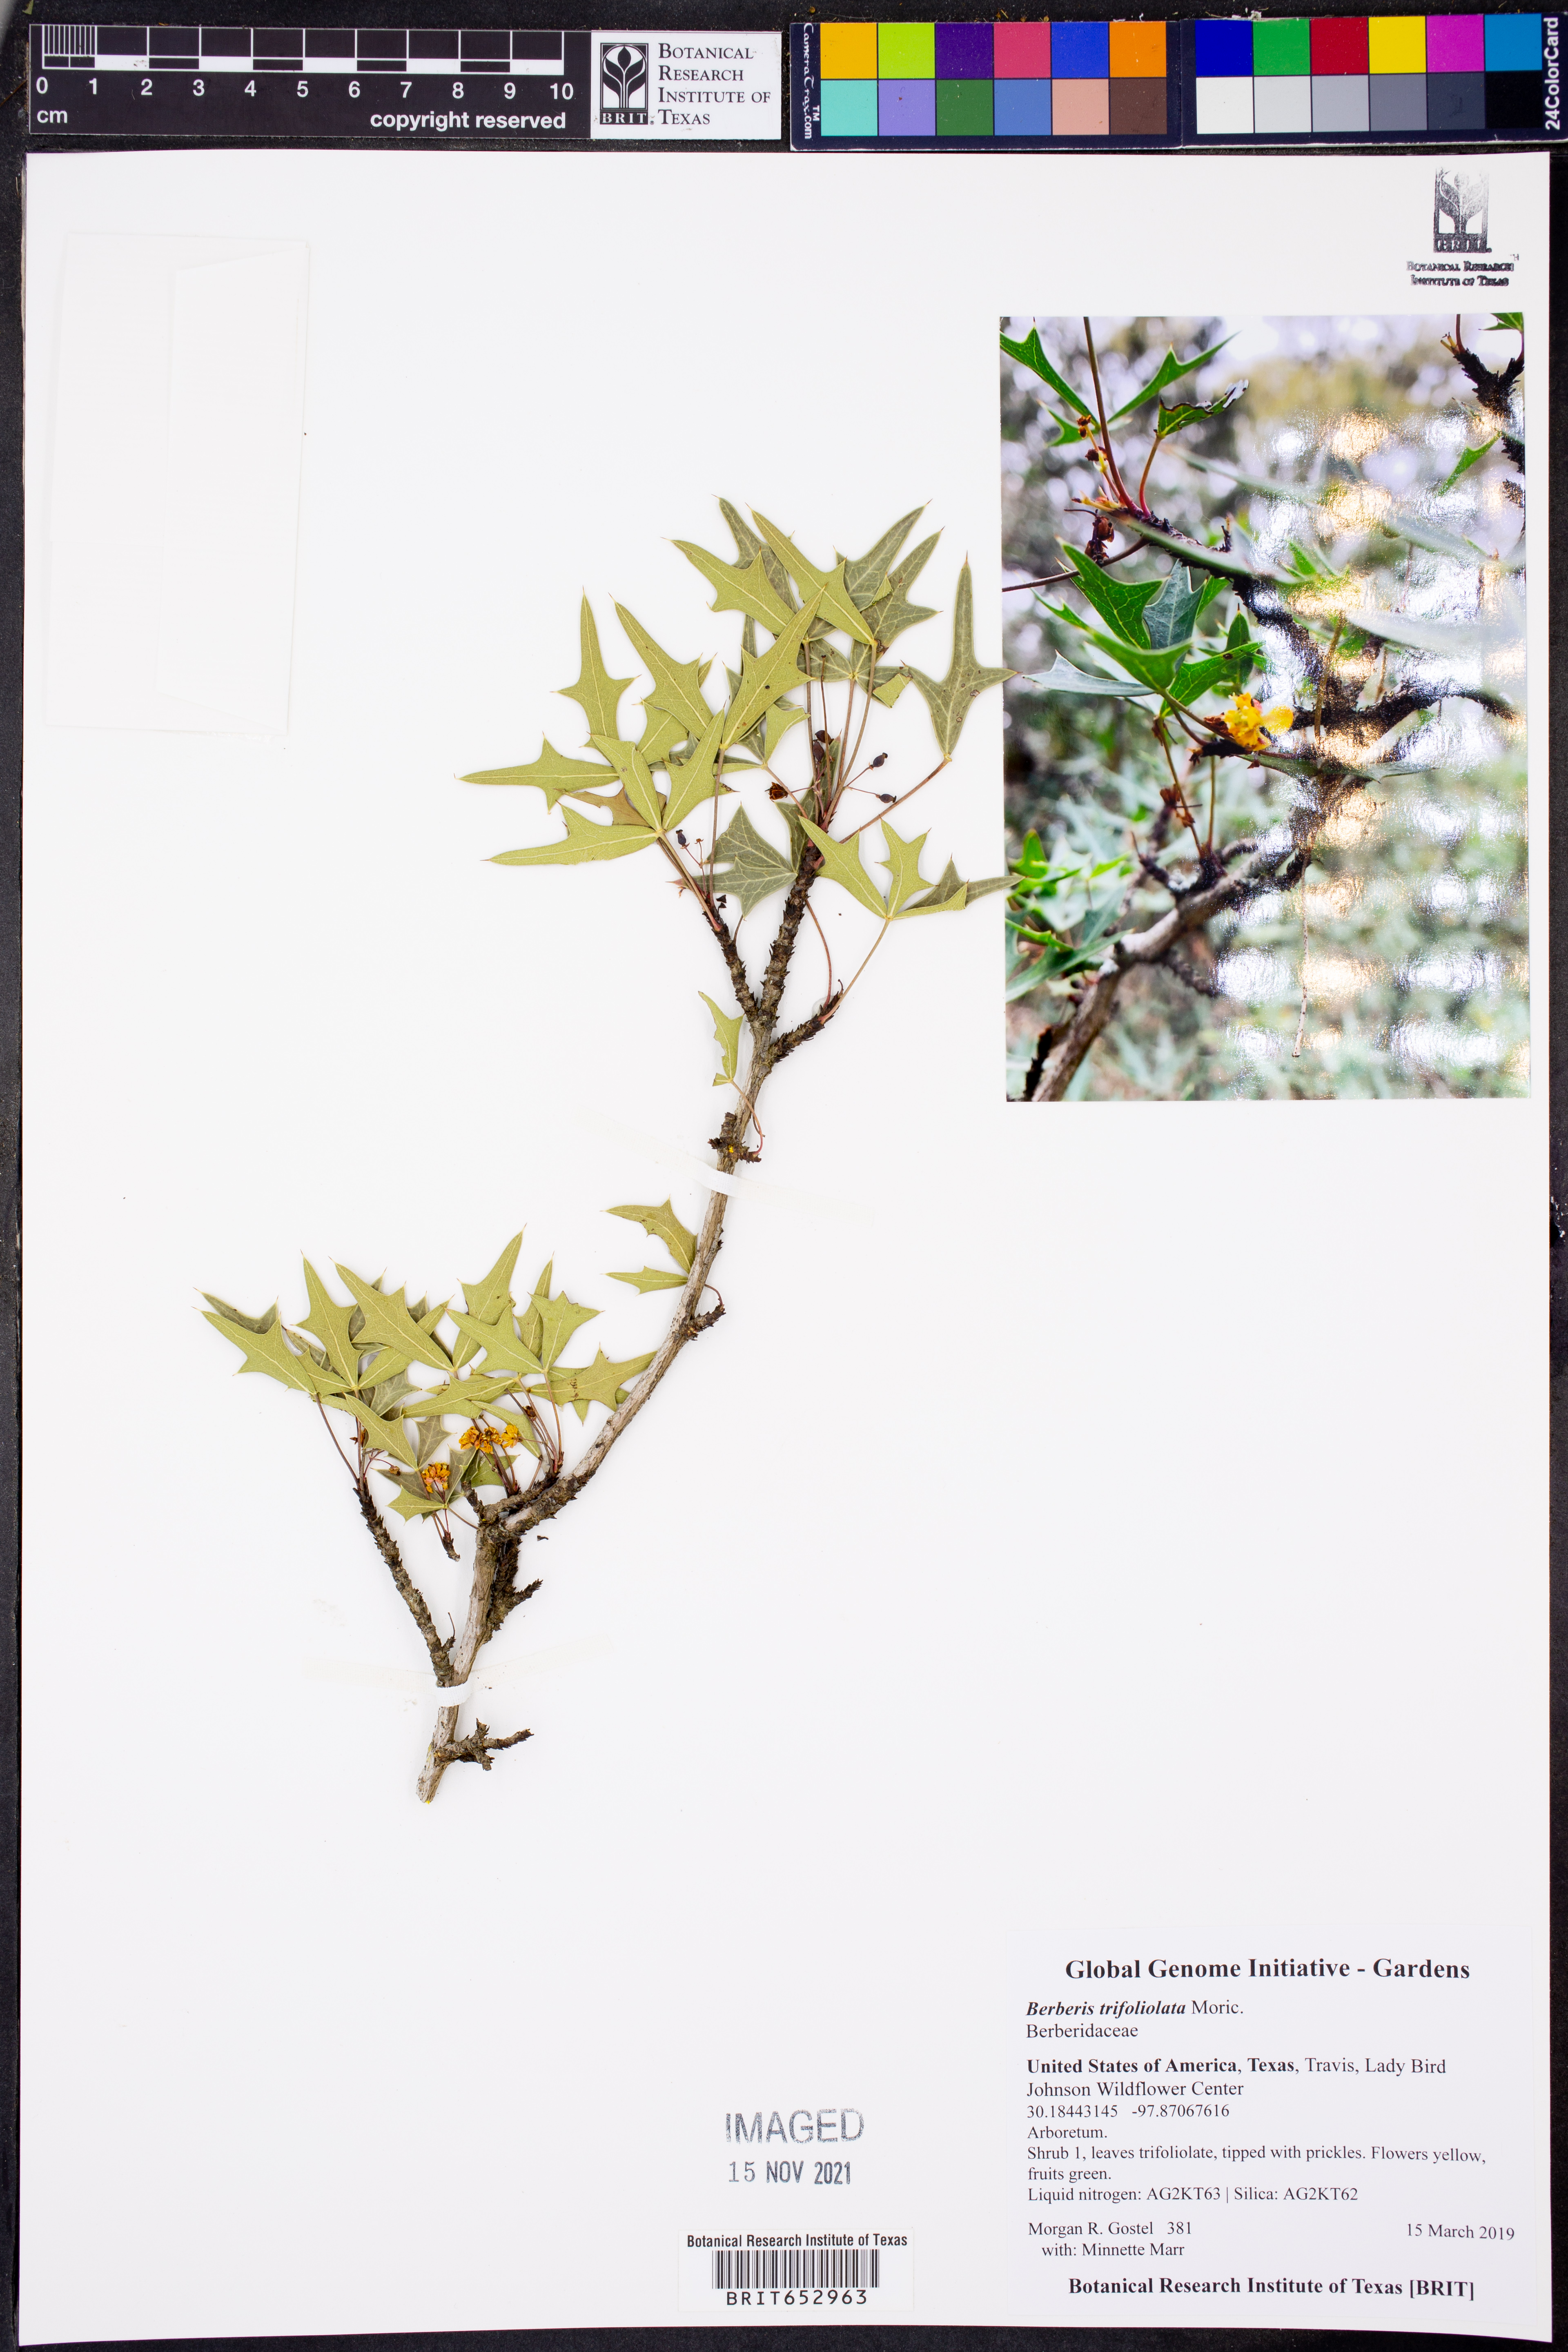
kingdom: Plantae
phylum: Tracheophyta
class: Magnoliopsida
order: Ranunculales
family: Berberidaceae
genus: Alloberberis
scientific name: Alloberberis trifoliolata
